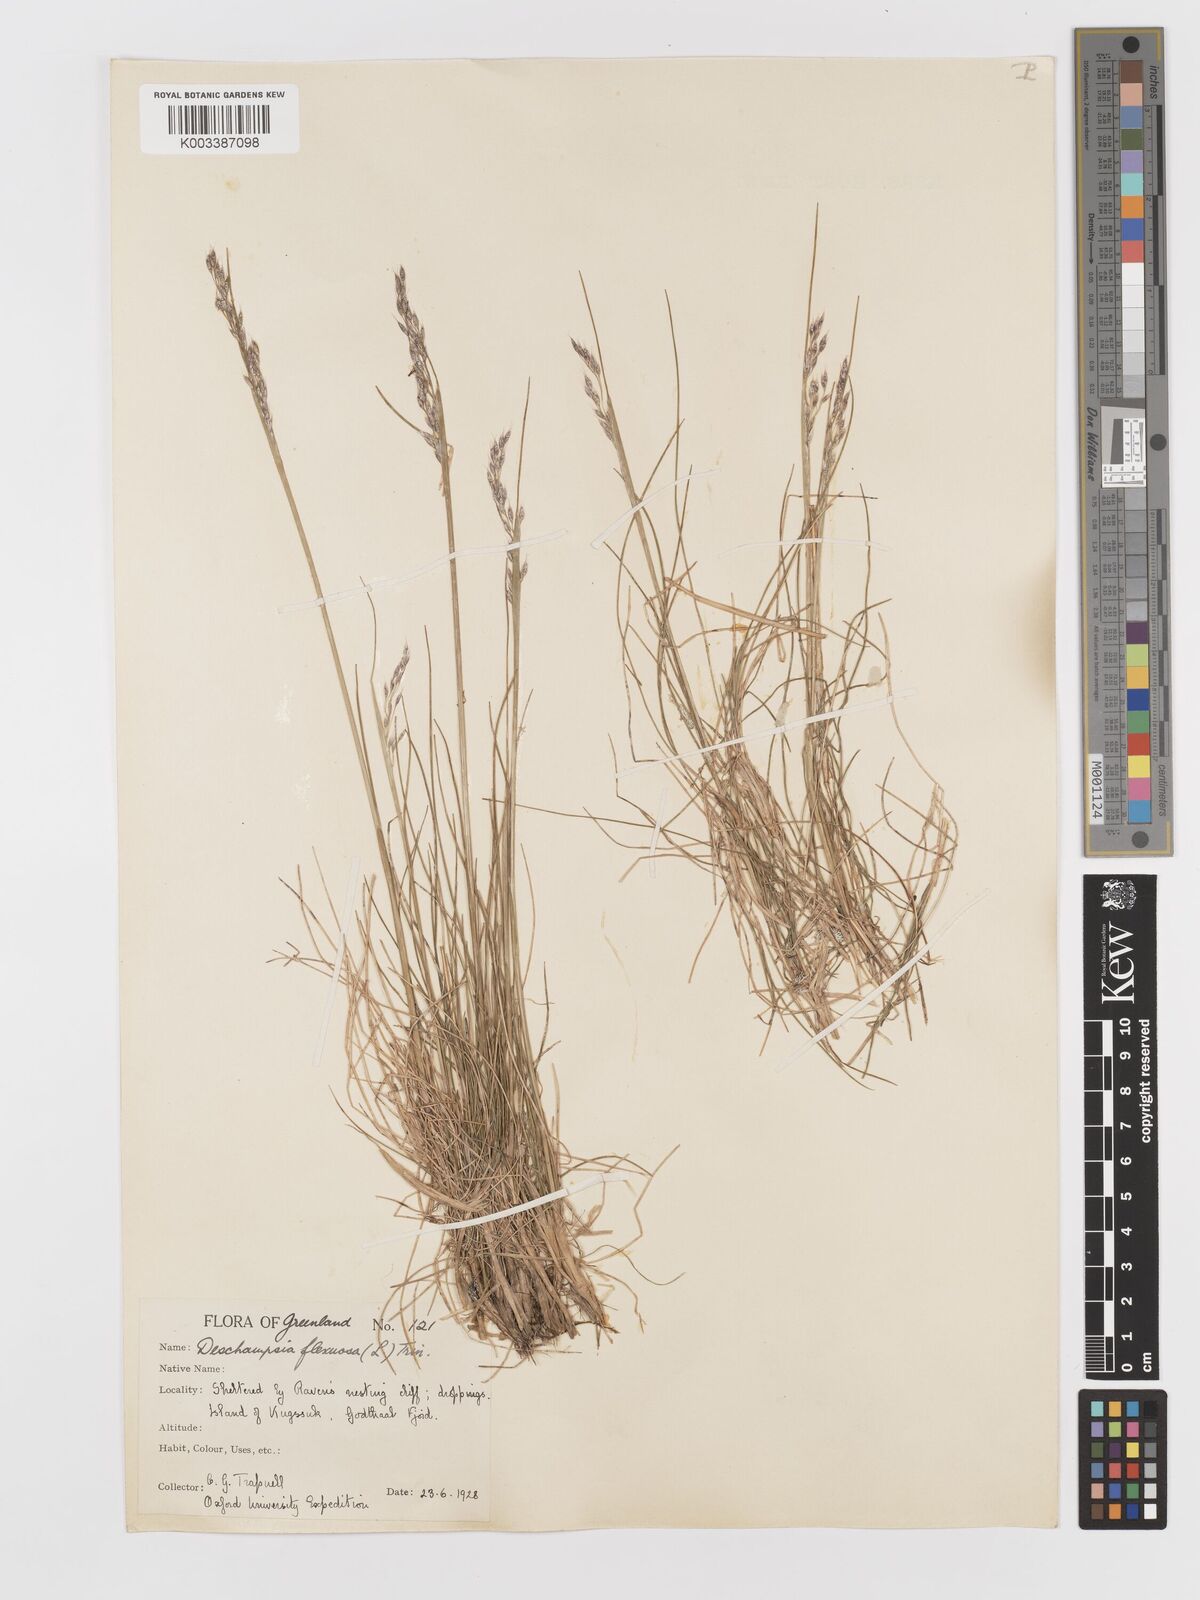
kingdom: Plantae
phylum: Tracheophyta
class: Liliopsida
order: Poales
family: Poaceae
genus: Avenella
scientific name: Avenella flexuosa
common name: Wavy hairgrass
